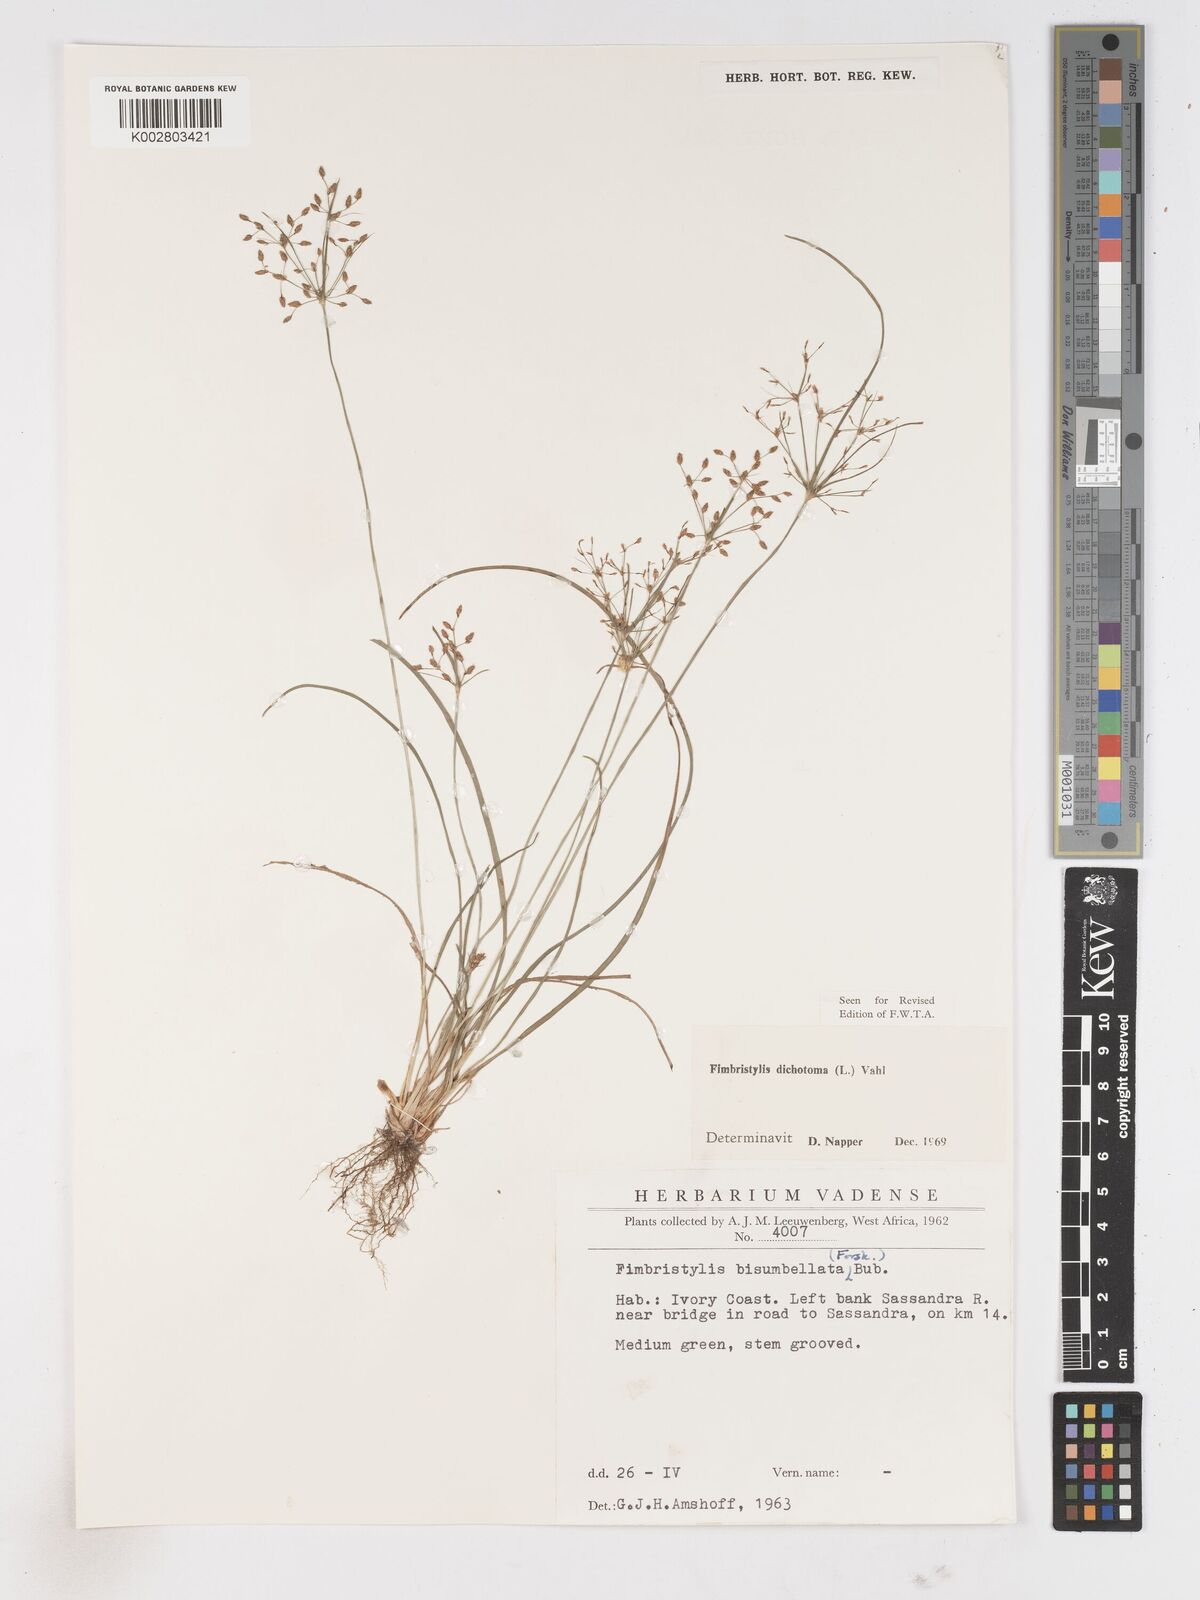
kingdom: Plantae
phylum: Tracheophyta
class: Liliopsida
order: Poales
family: Cyperaceae
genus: Fimbristylis
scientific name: Fimbristylis dichotoma
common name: Forked fimbry
